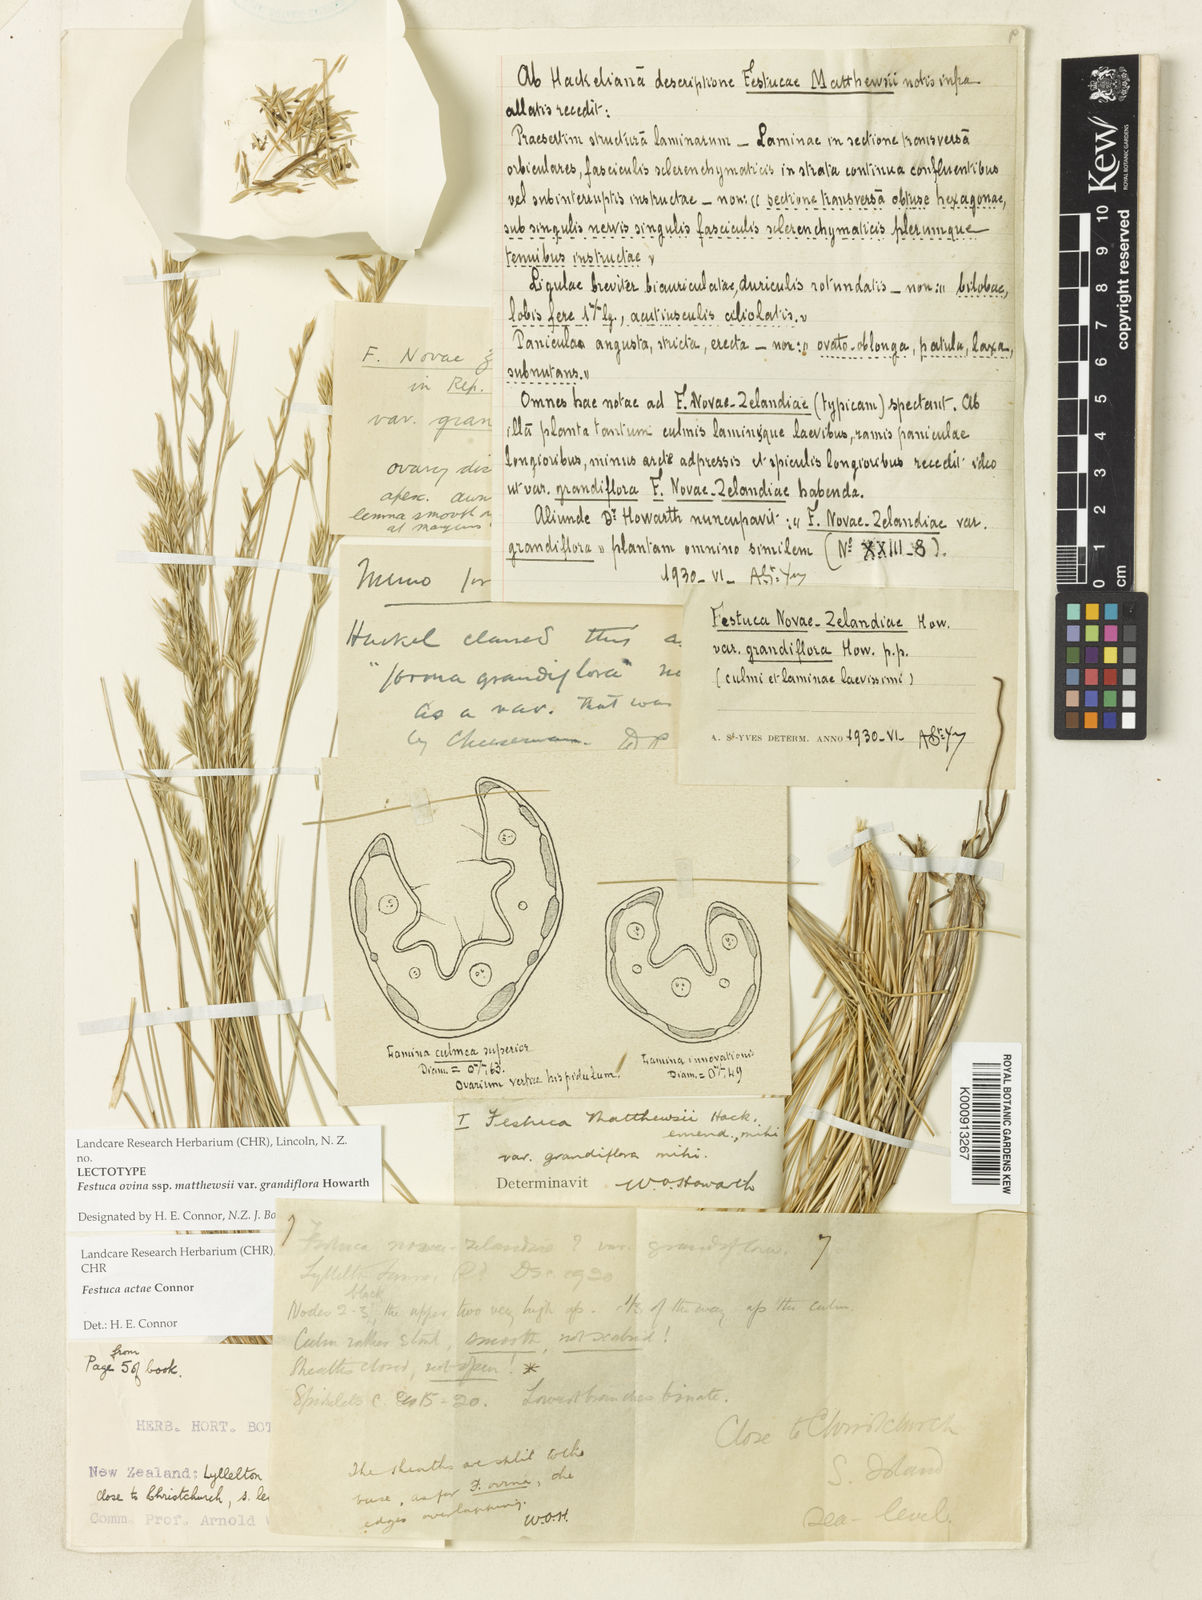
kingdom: Plantae
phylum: Tracheophyta
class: Liliopsida
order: Poales
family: Poaceae
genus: Festuca
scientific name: Festuca matthewsii
